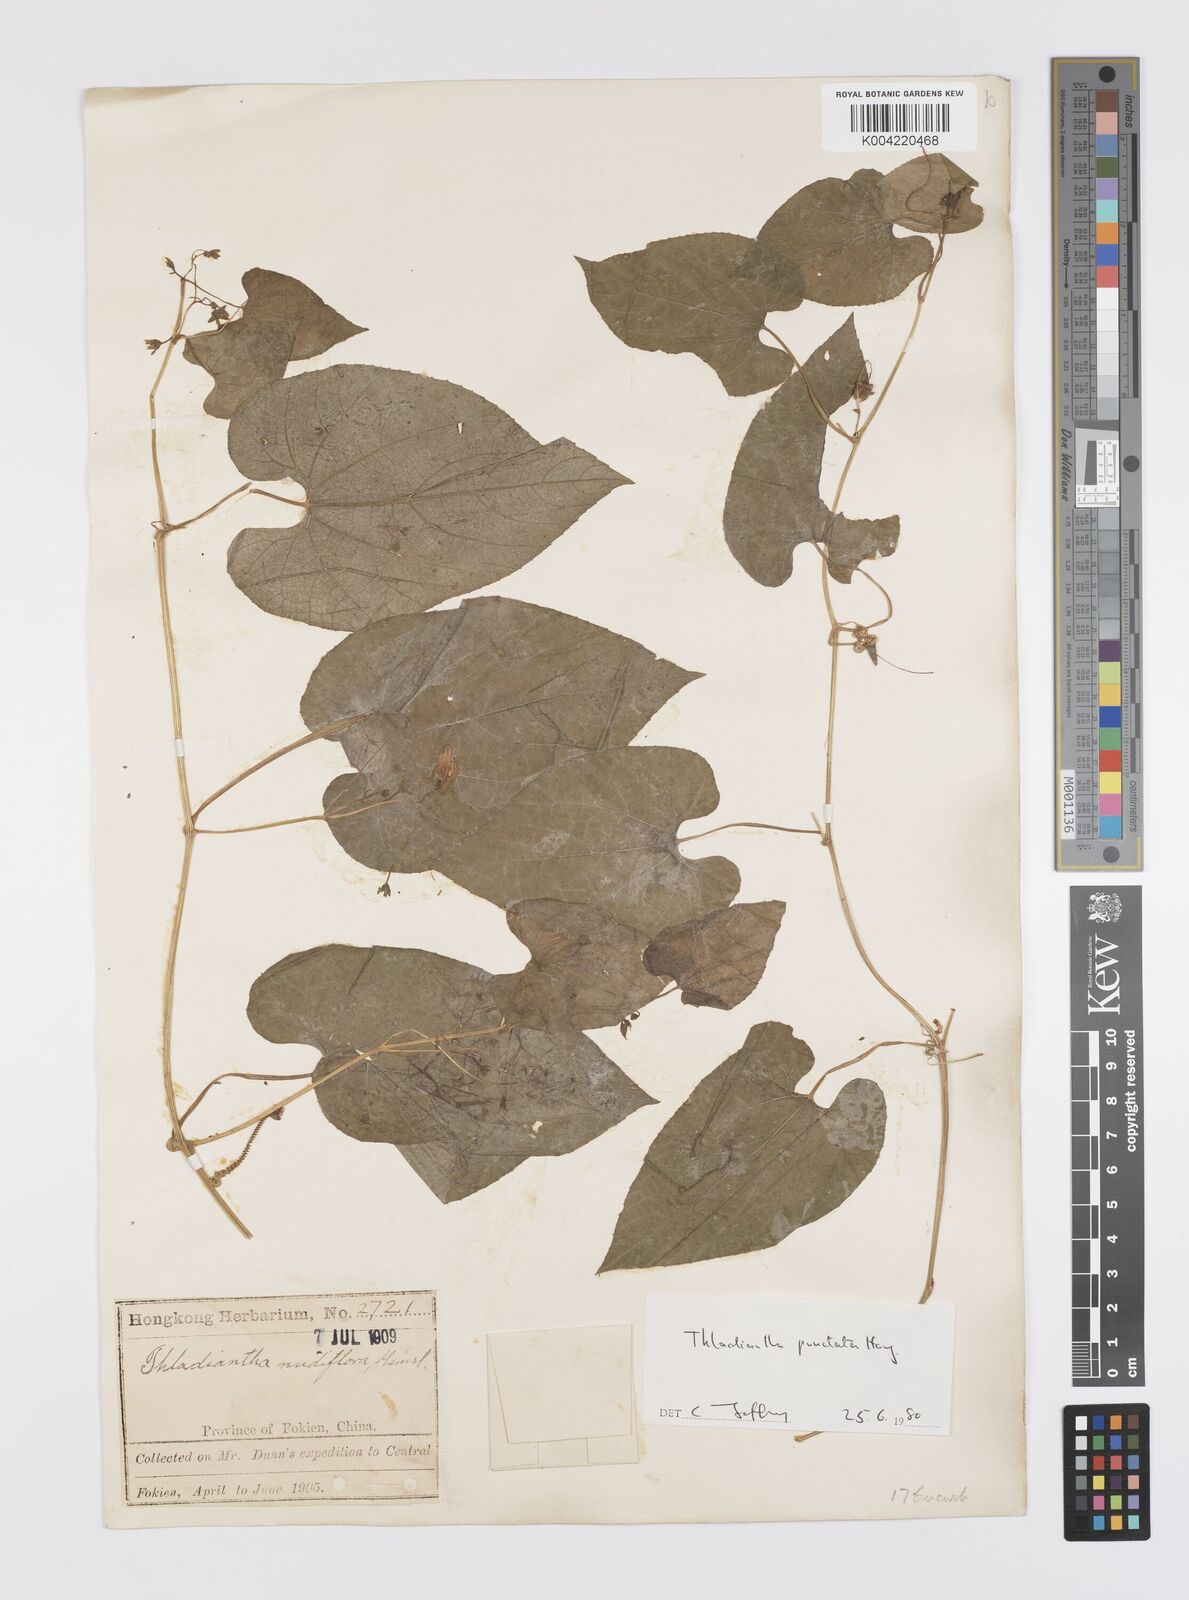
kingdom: Plantae
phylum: Tracheophyta
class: Magnoliopsida
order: Cucurbitales
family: Cucurbitaceae
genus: Thladiantha
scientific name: Thladiantha punctata
